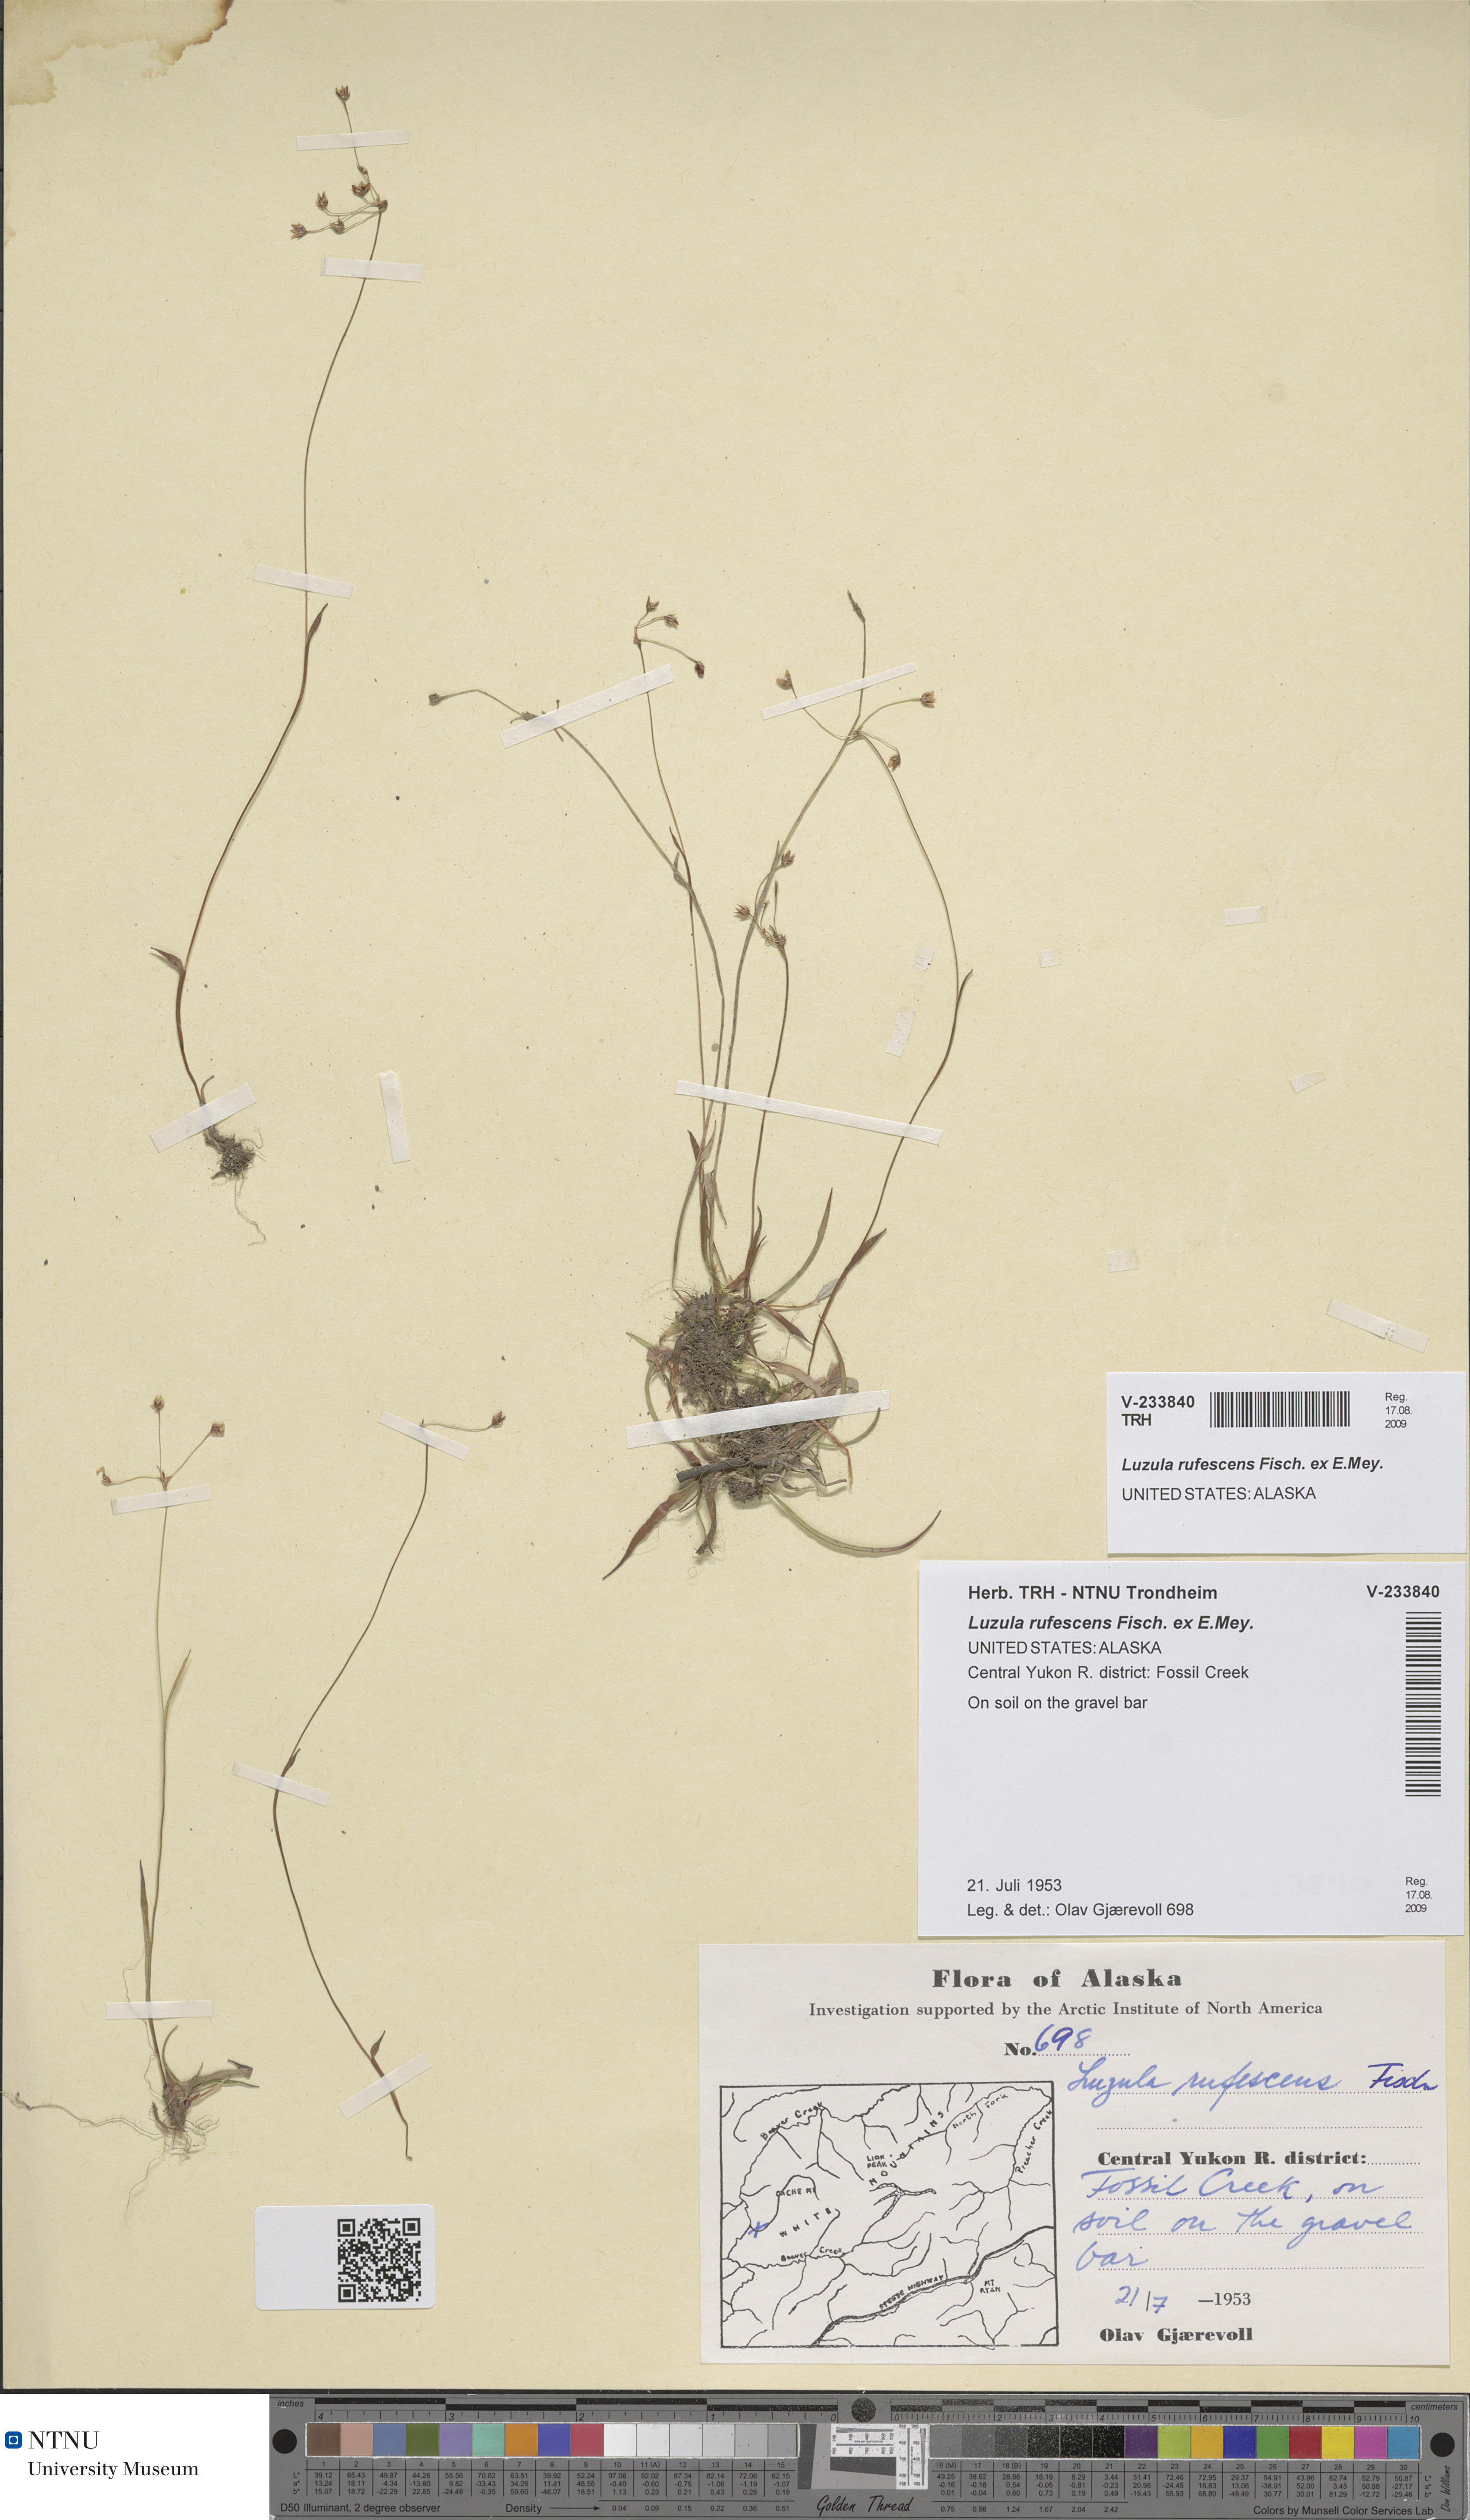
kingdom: Plantae
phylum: Tracheophyta
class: Liliopsida
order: Poales
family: Juncaceae
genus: Luzula
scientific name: Luzula rufescens
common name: Reddish woodrush
